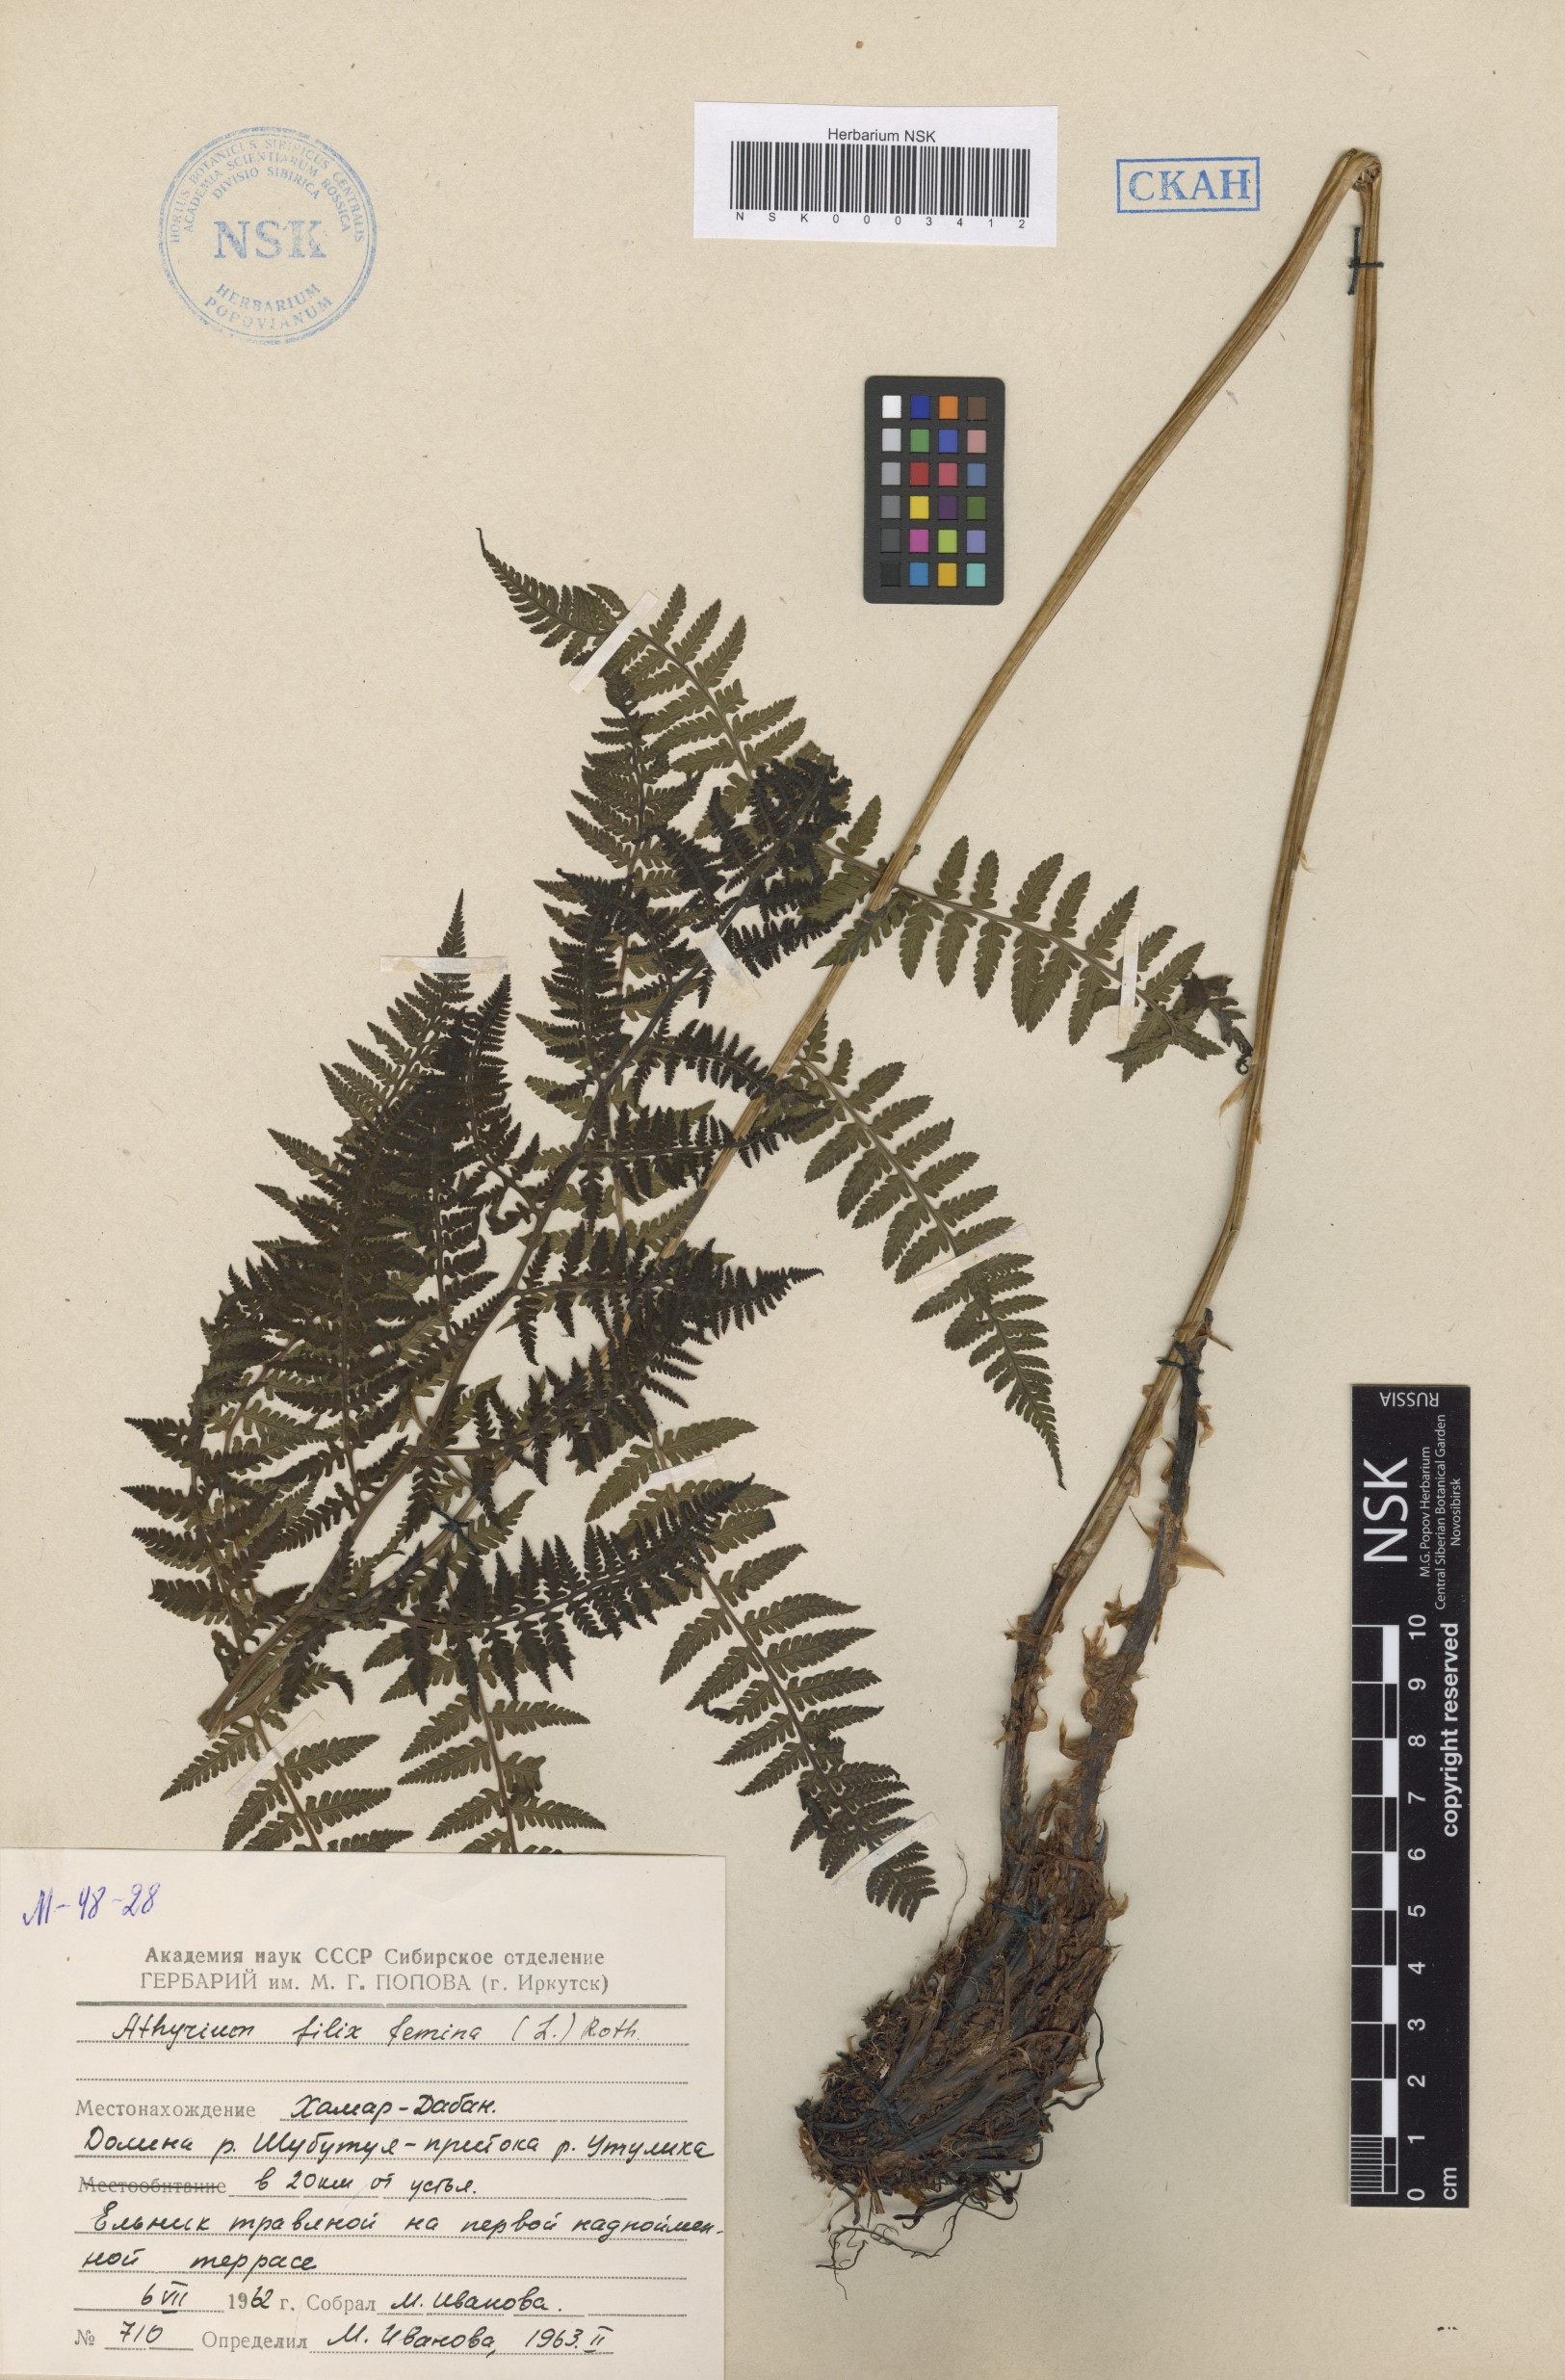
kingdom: Plantae
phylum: Tracheophyta
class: Polypodiopsida
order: Polypodiales
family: Athyriaceae
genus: Athyrium
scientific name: Athyrium filix-femina
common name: Lady fern
